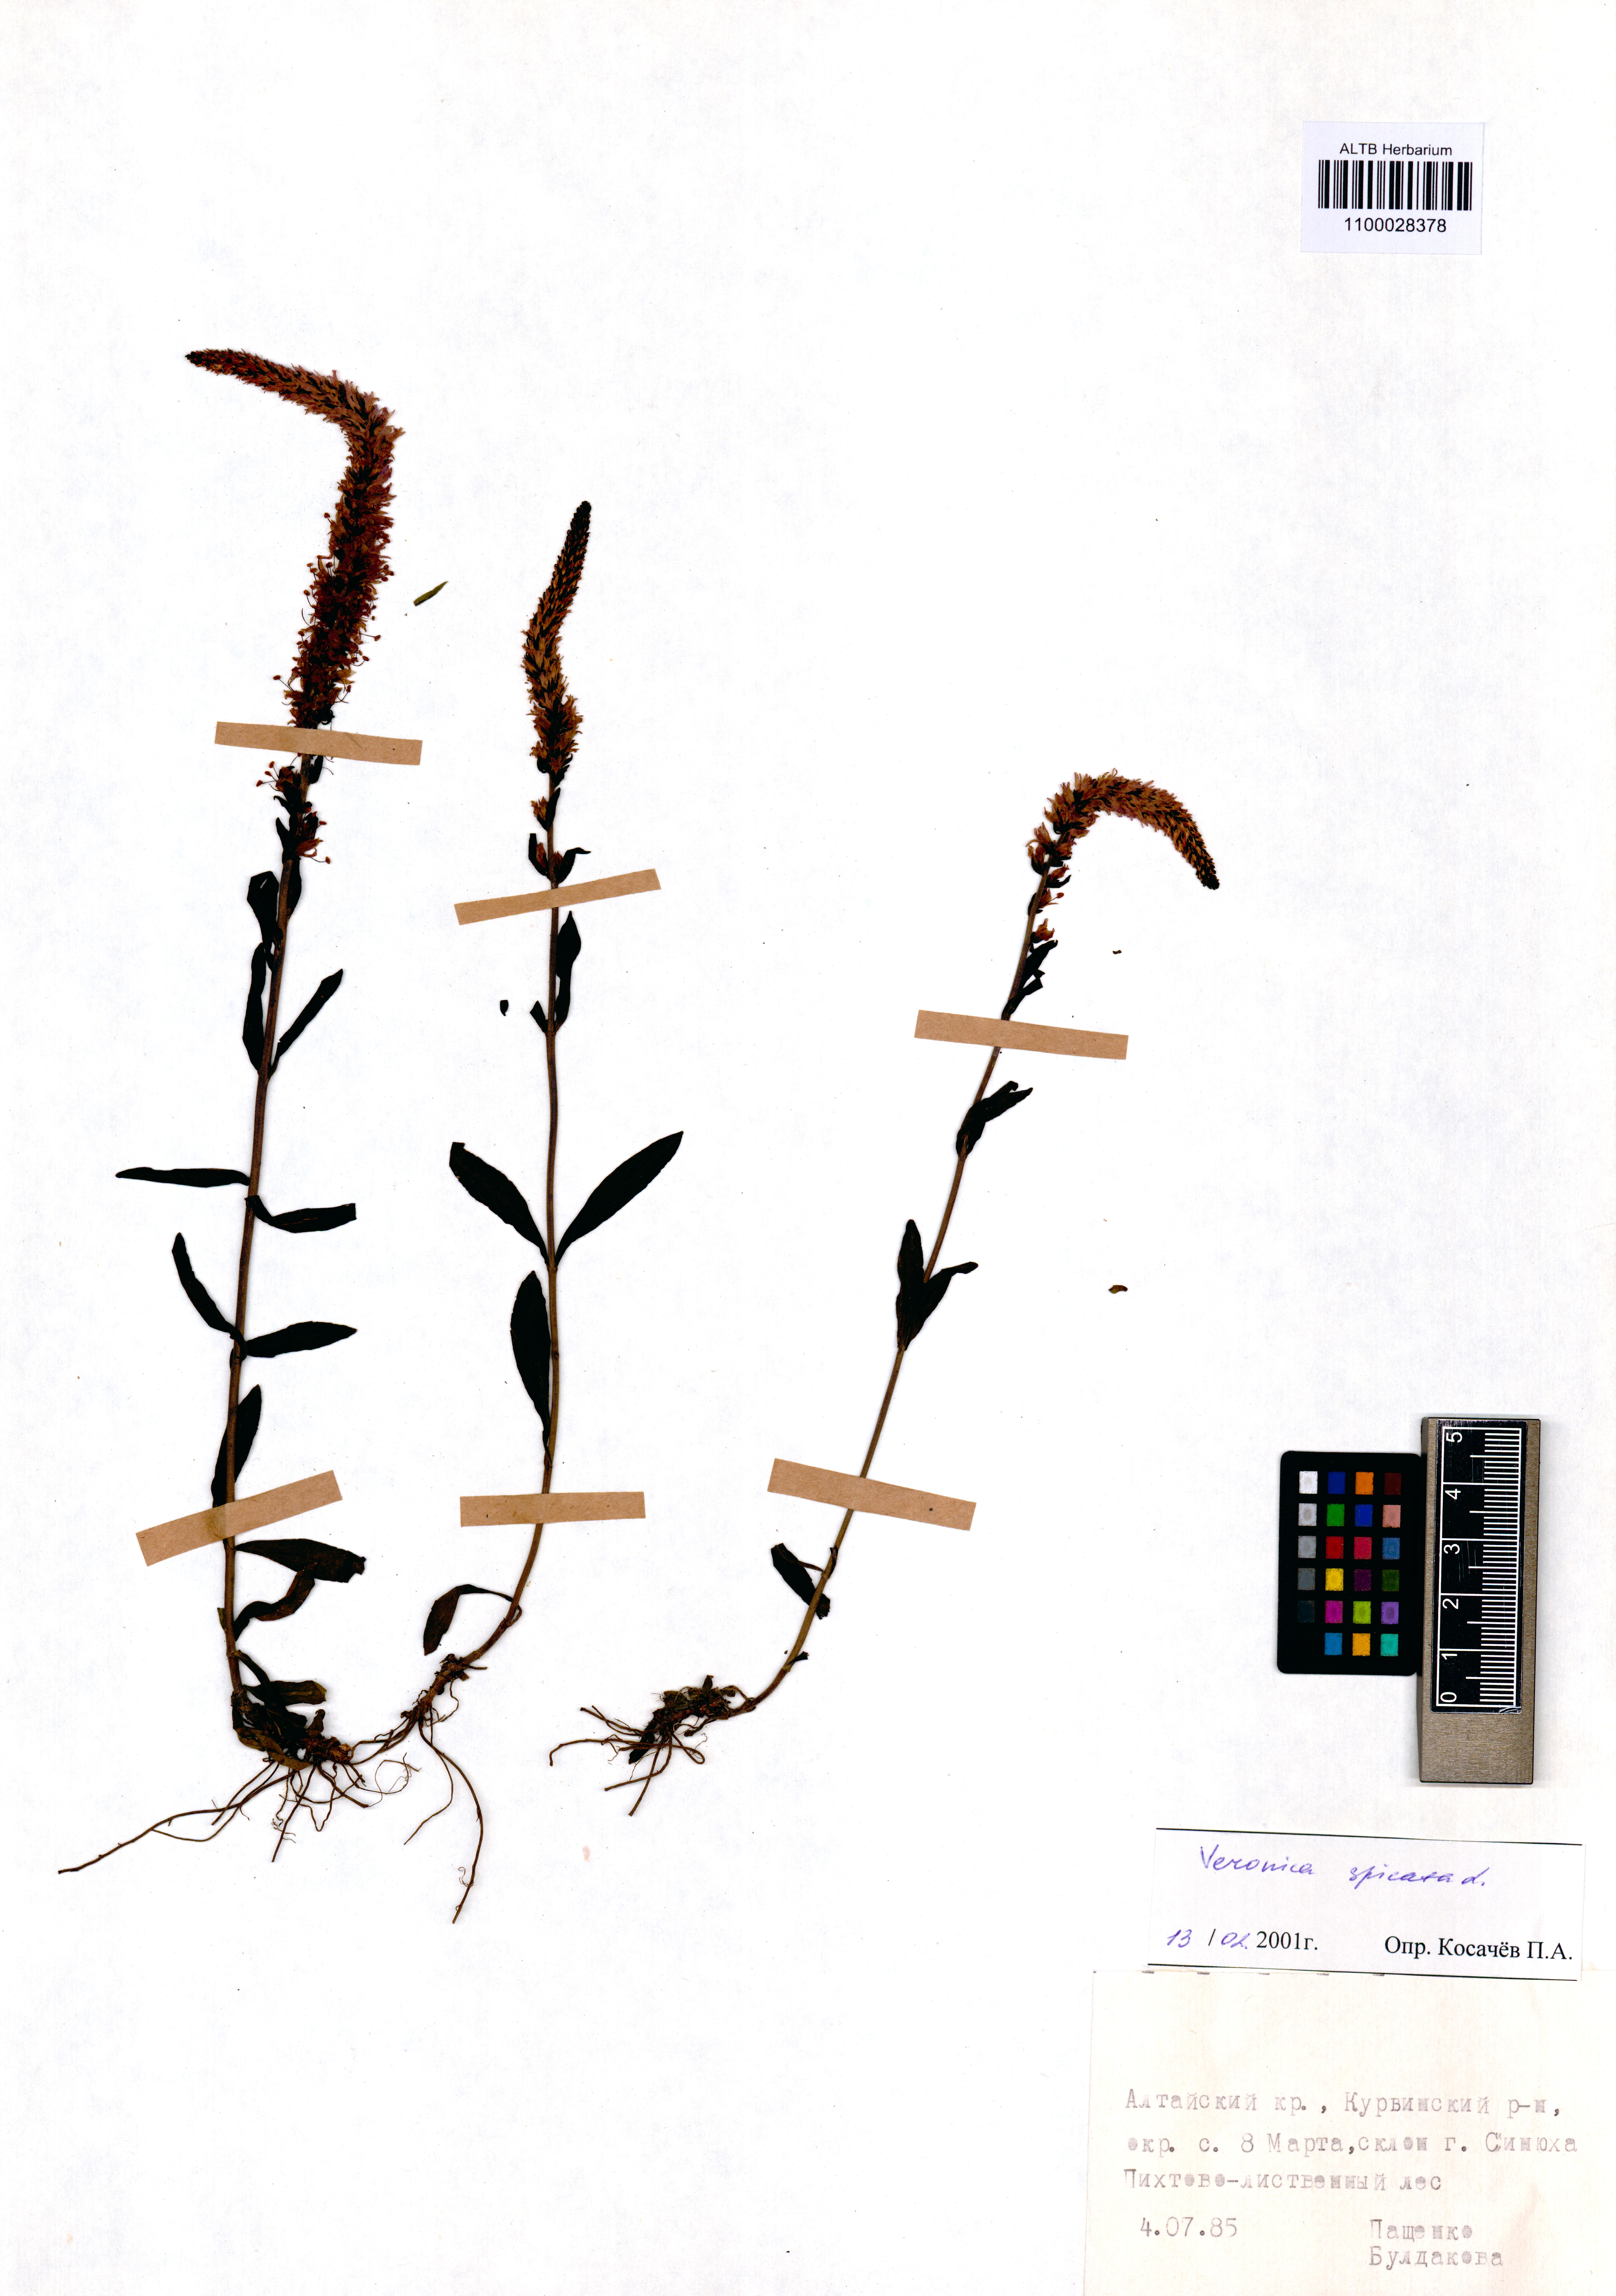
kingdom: Plantae
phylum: Tracheophyta
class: Magnoliopsida
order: Lamiales
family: Plantaginaceae
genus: Veronica
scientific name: Veronica spicata
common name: Spiked speedwell
